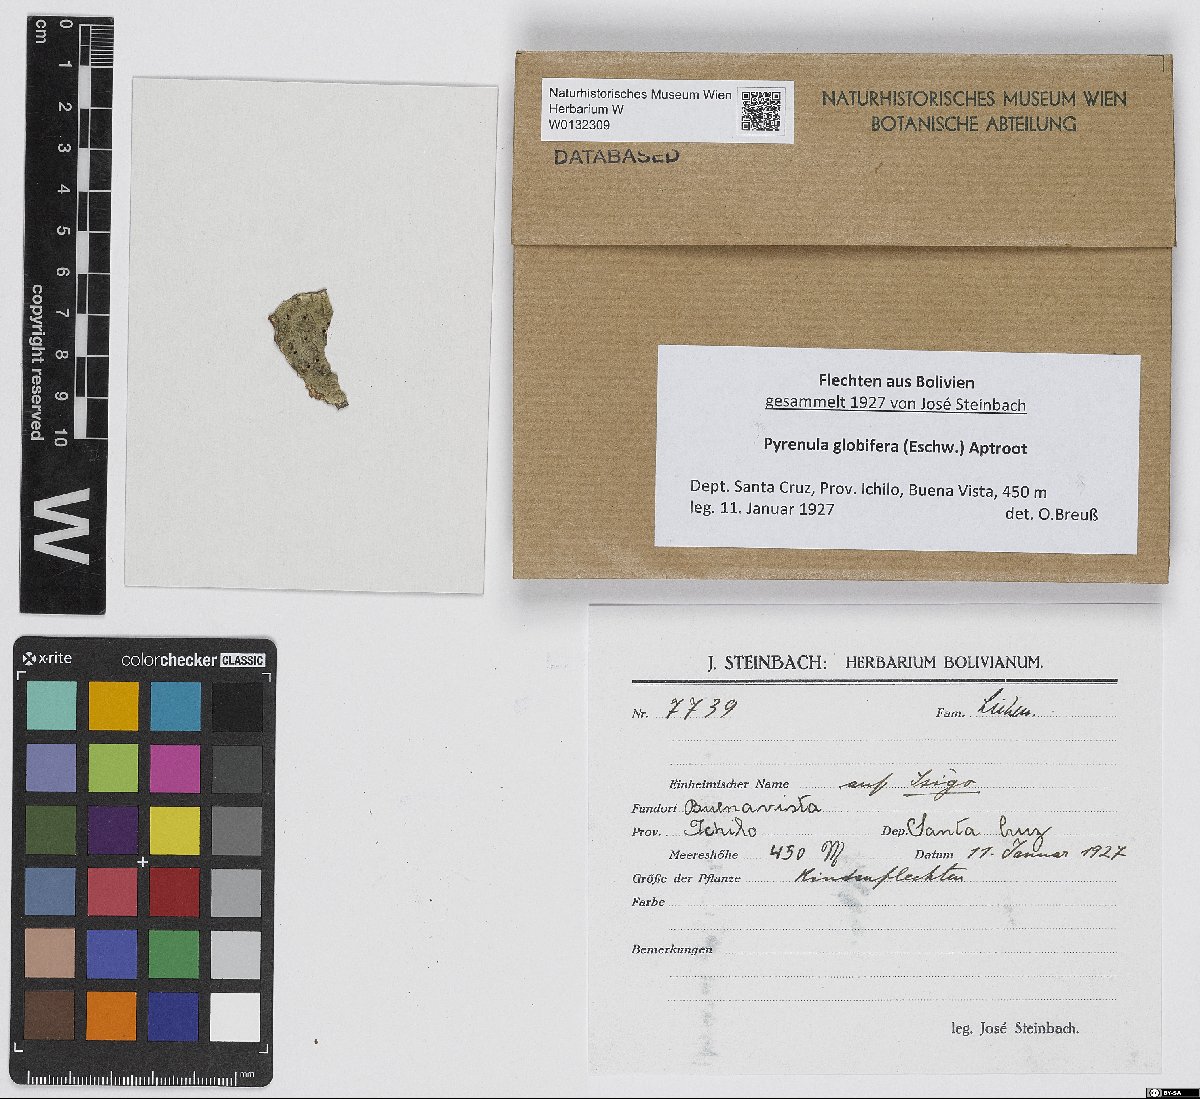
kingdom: Fungi
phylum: Ascomycota
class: Eurotiomycetes
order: Pyrenulales
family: Pyrenulaceae
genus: Pyrenula
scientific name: Pyrenula globifera
